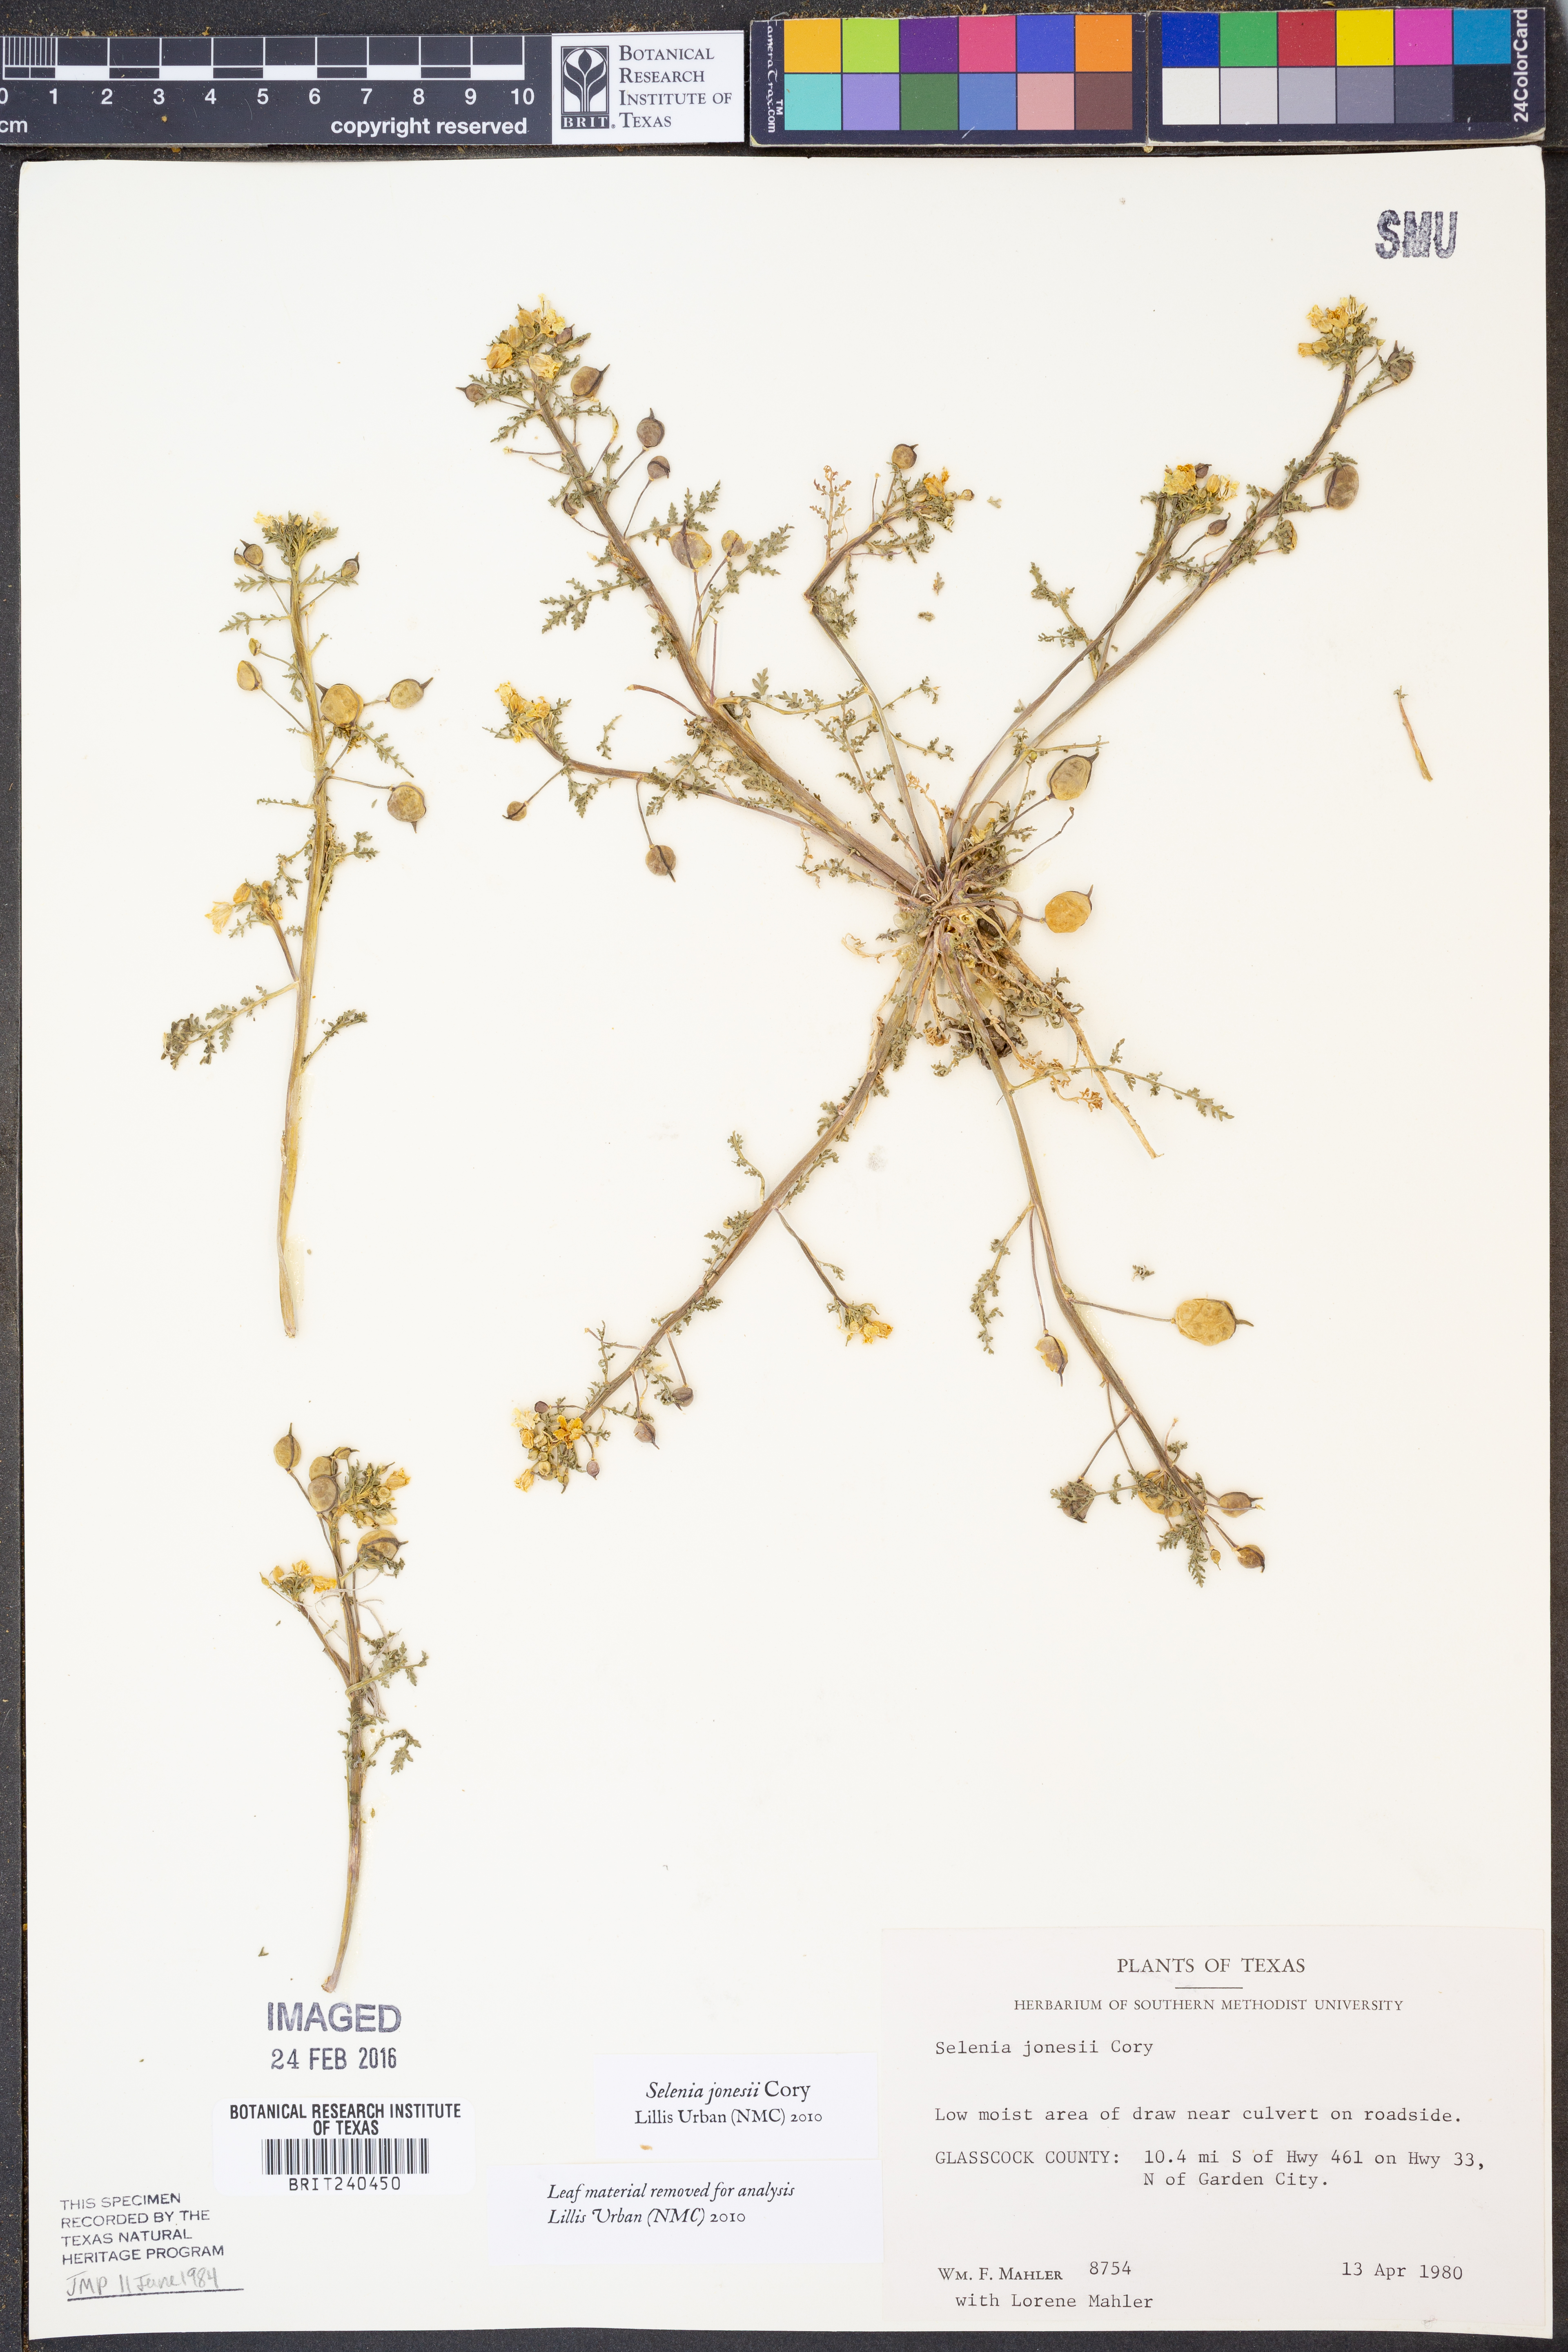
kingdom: Plantae
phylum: Tracheophyta
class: Magnoliopsida
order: Brassicales
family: Brassicaceae
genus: Selenia
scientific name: Selenia jonesii
